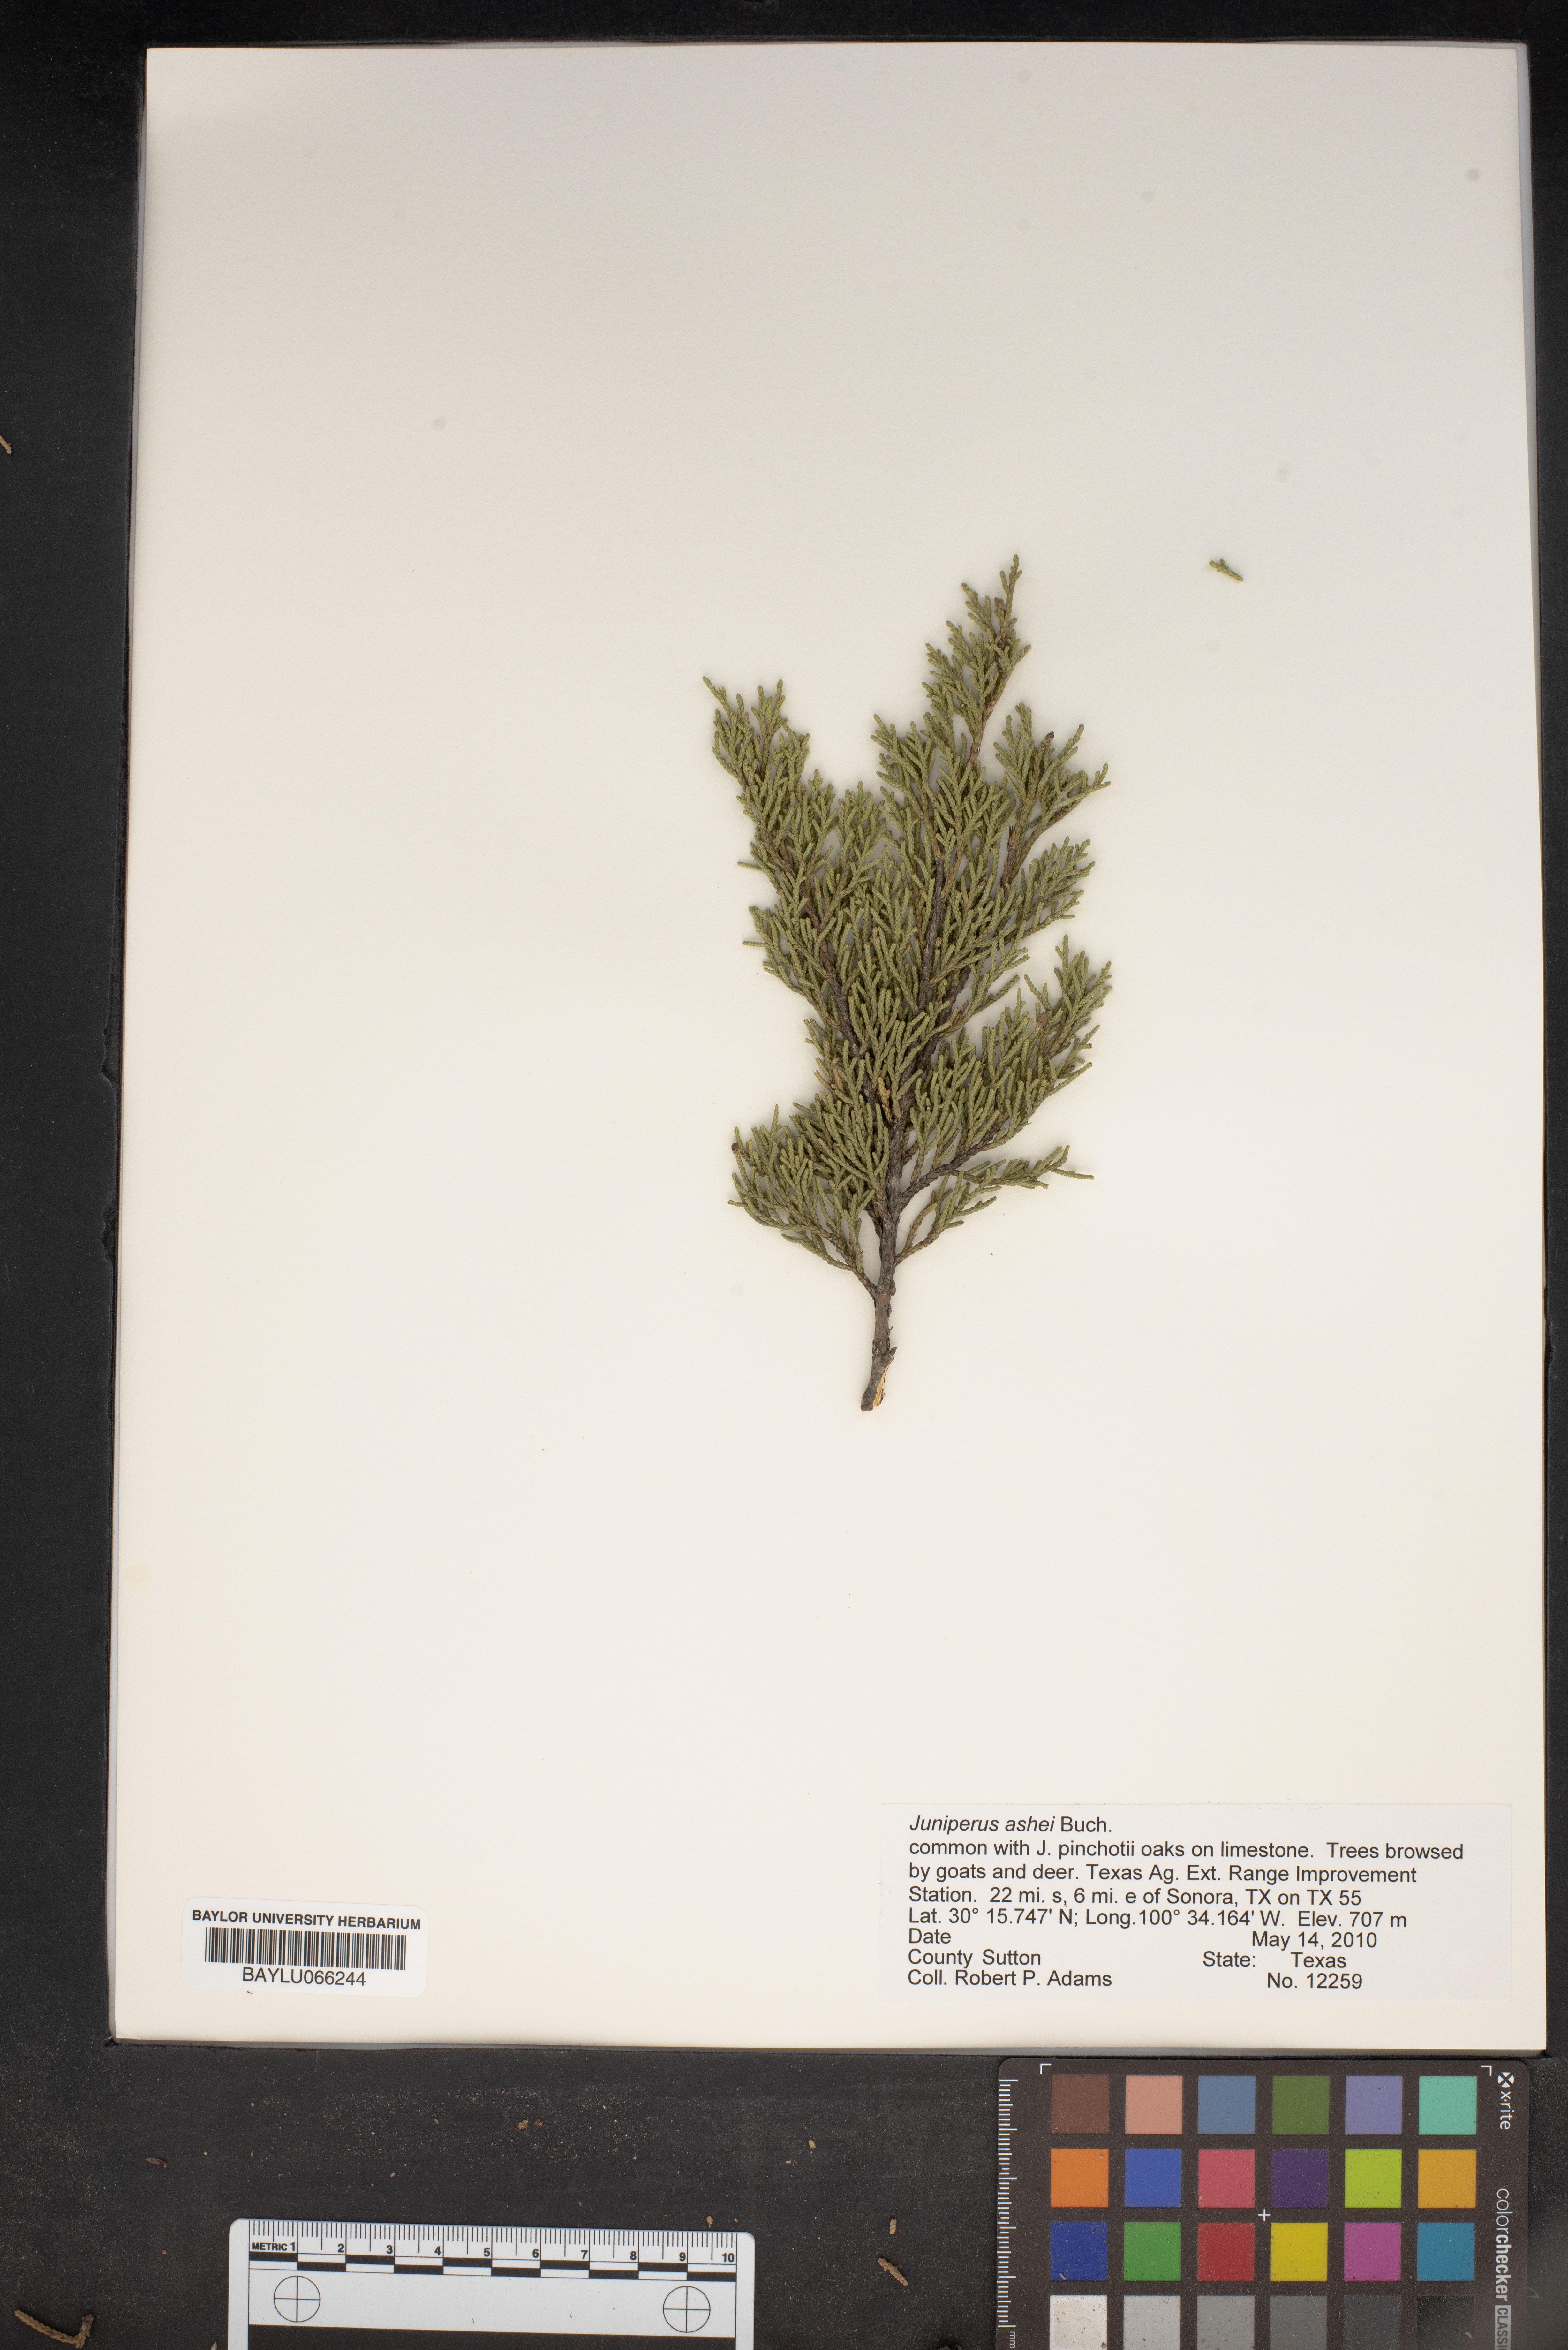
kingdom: Plantae
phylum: Tracheophyta
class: Pinopsida
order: Pinales
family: Cupressaceae
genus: Juniperus
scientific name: Juniperus ashei
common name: Mexican juniper
